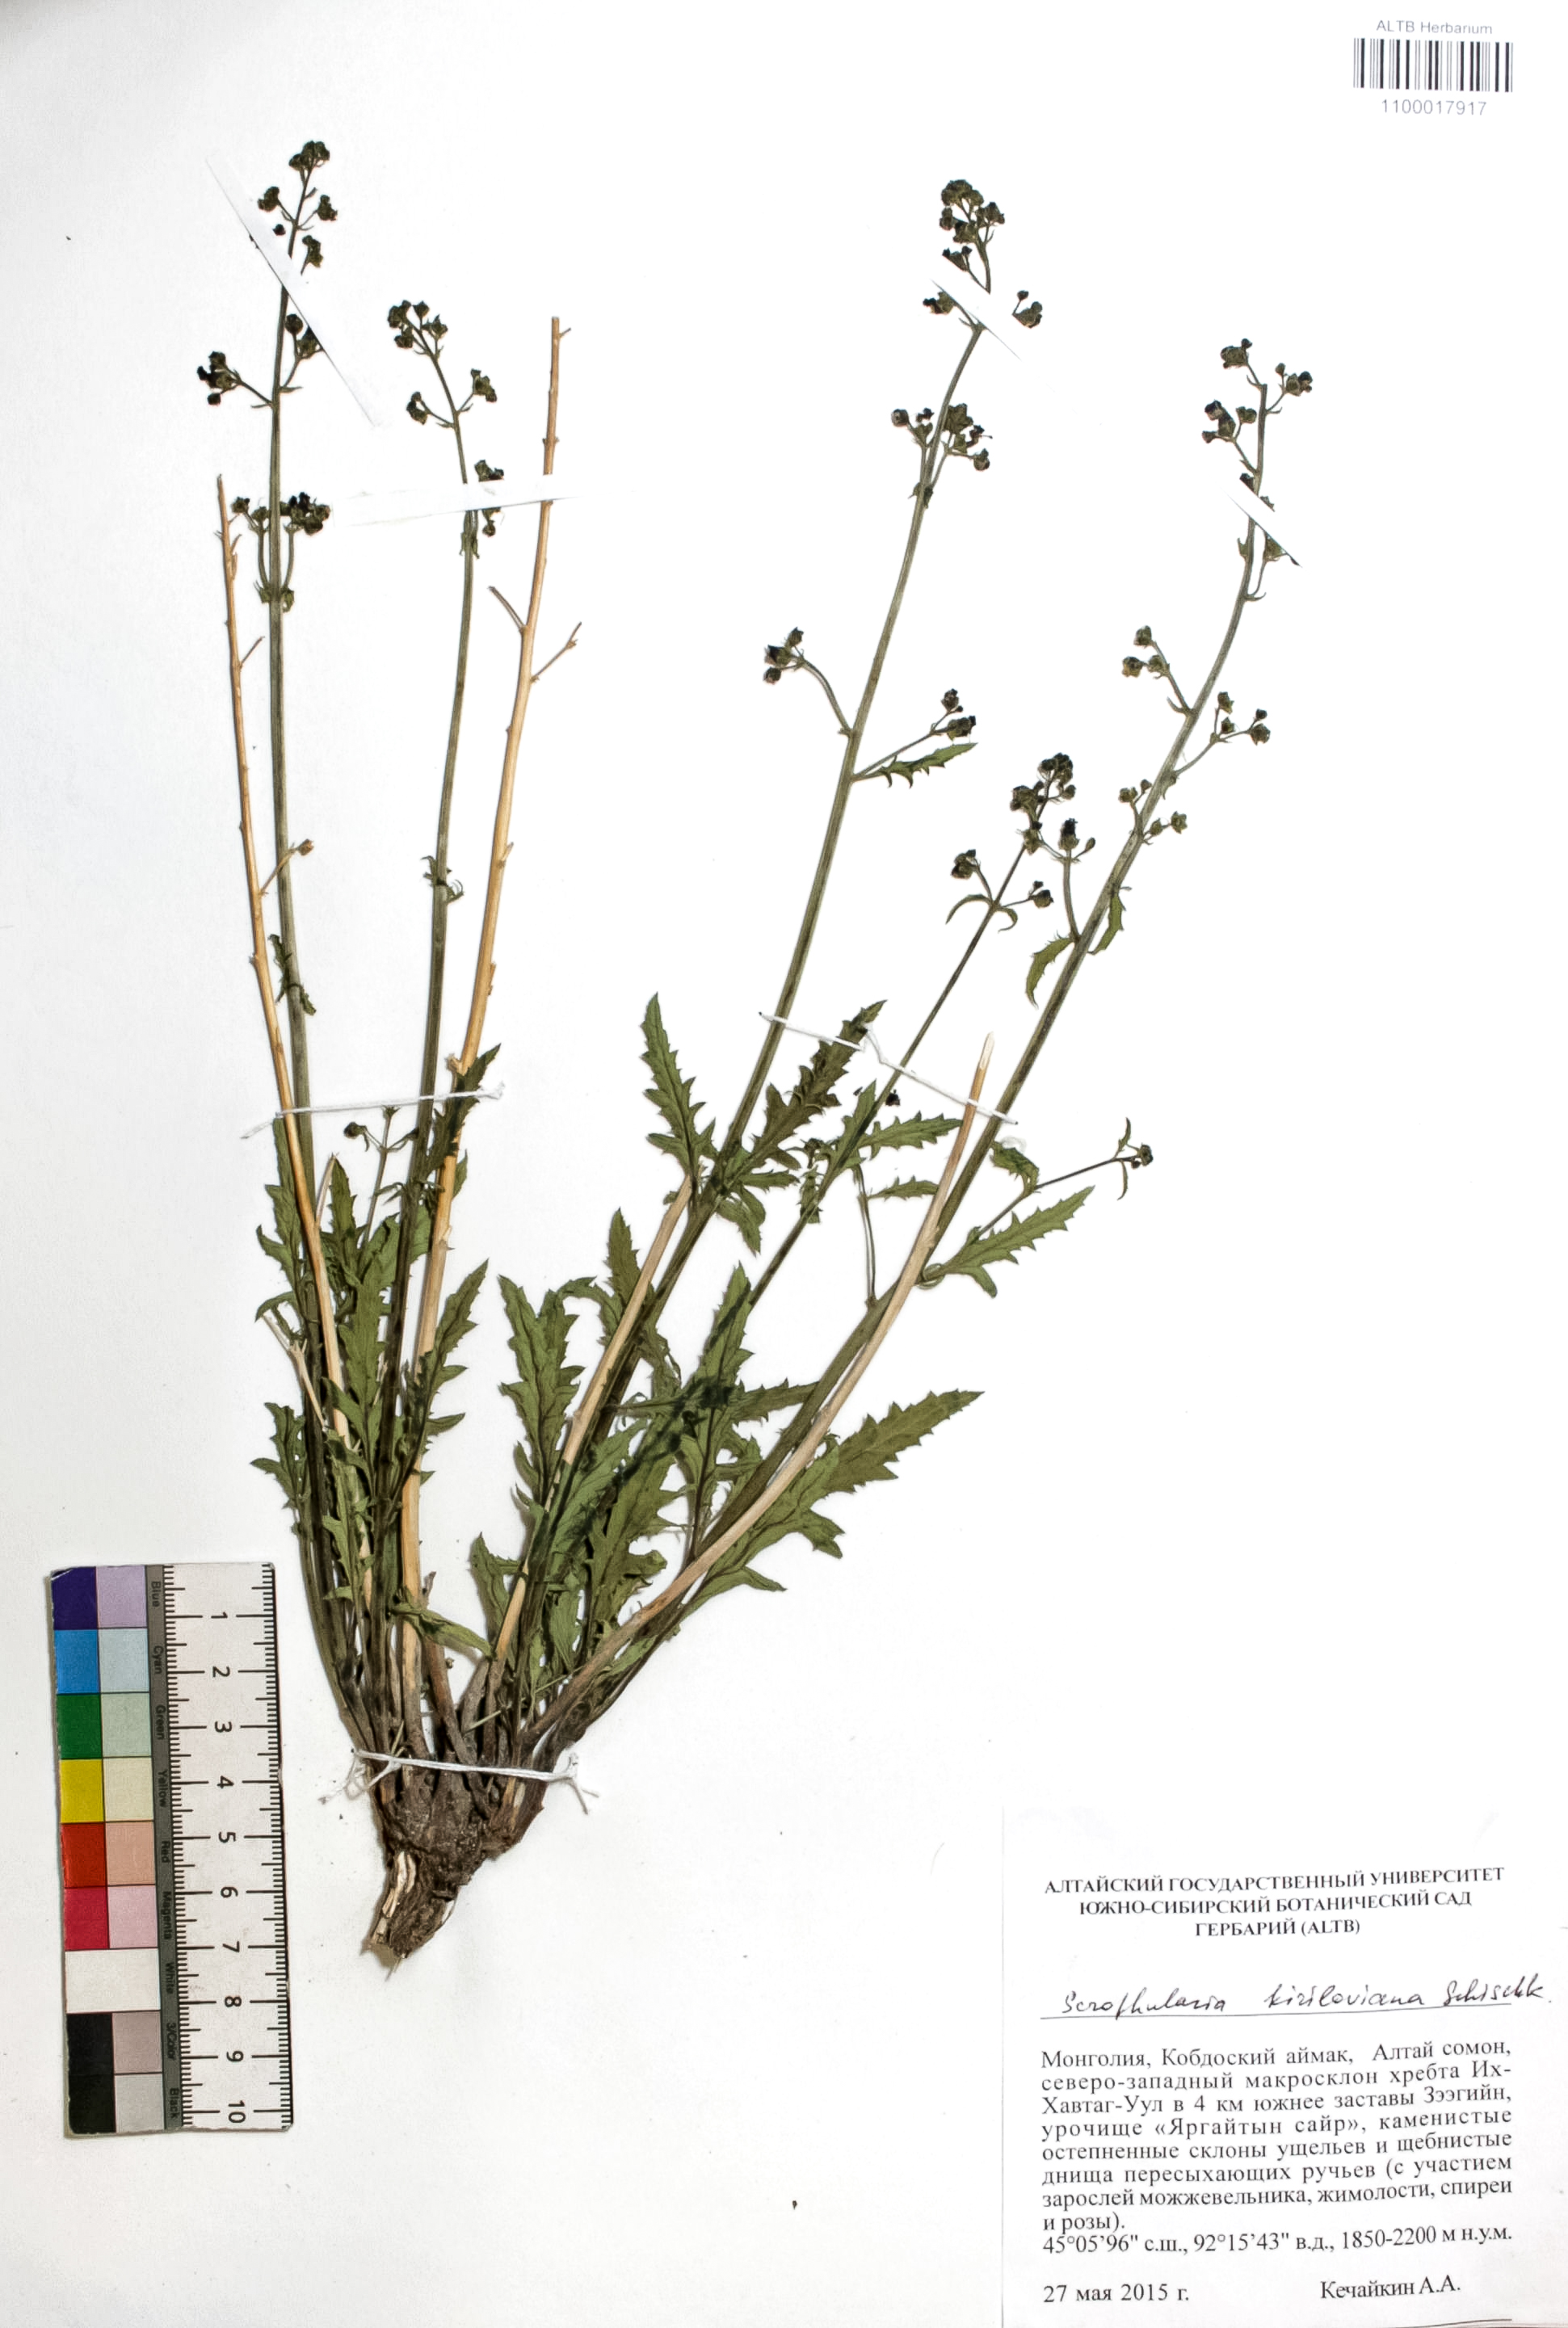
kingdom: Plantae
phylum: Tracheophyta
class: Magnoliopsida
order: Lamiales
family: Scrophulariaceae
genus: Scrophularia
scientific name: Scrophularia kiriloviana
